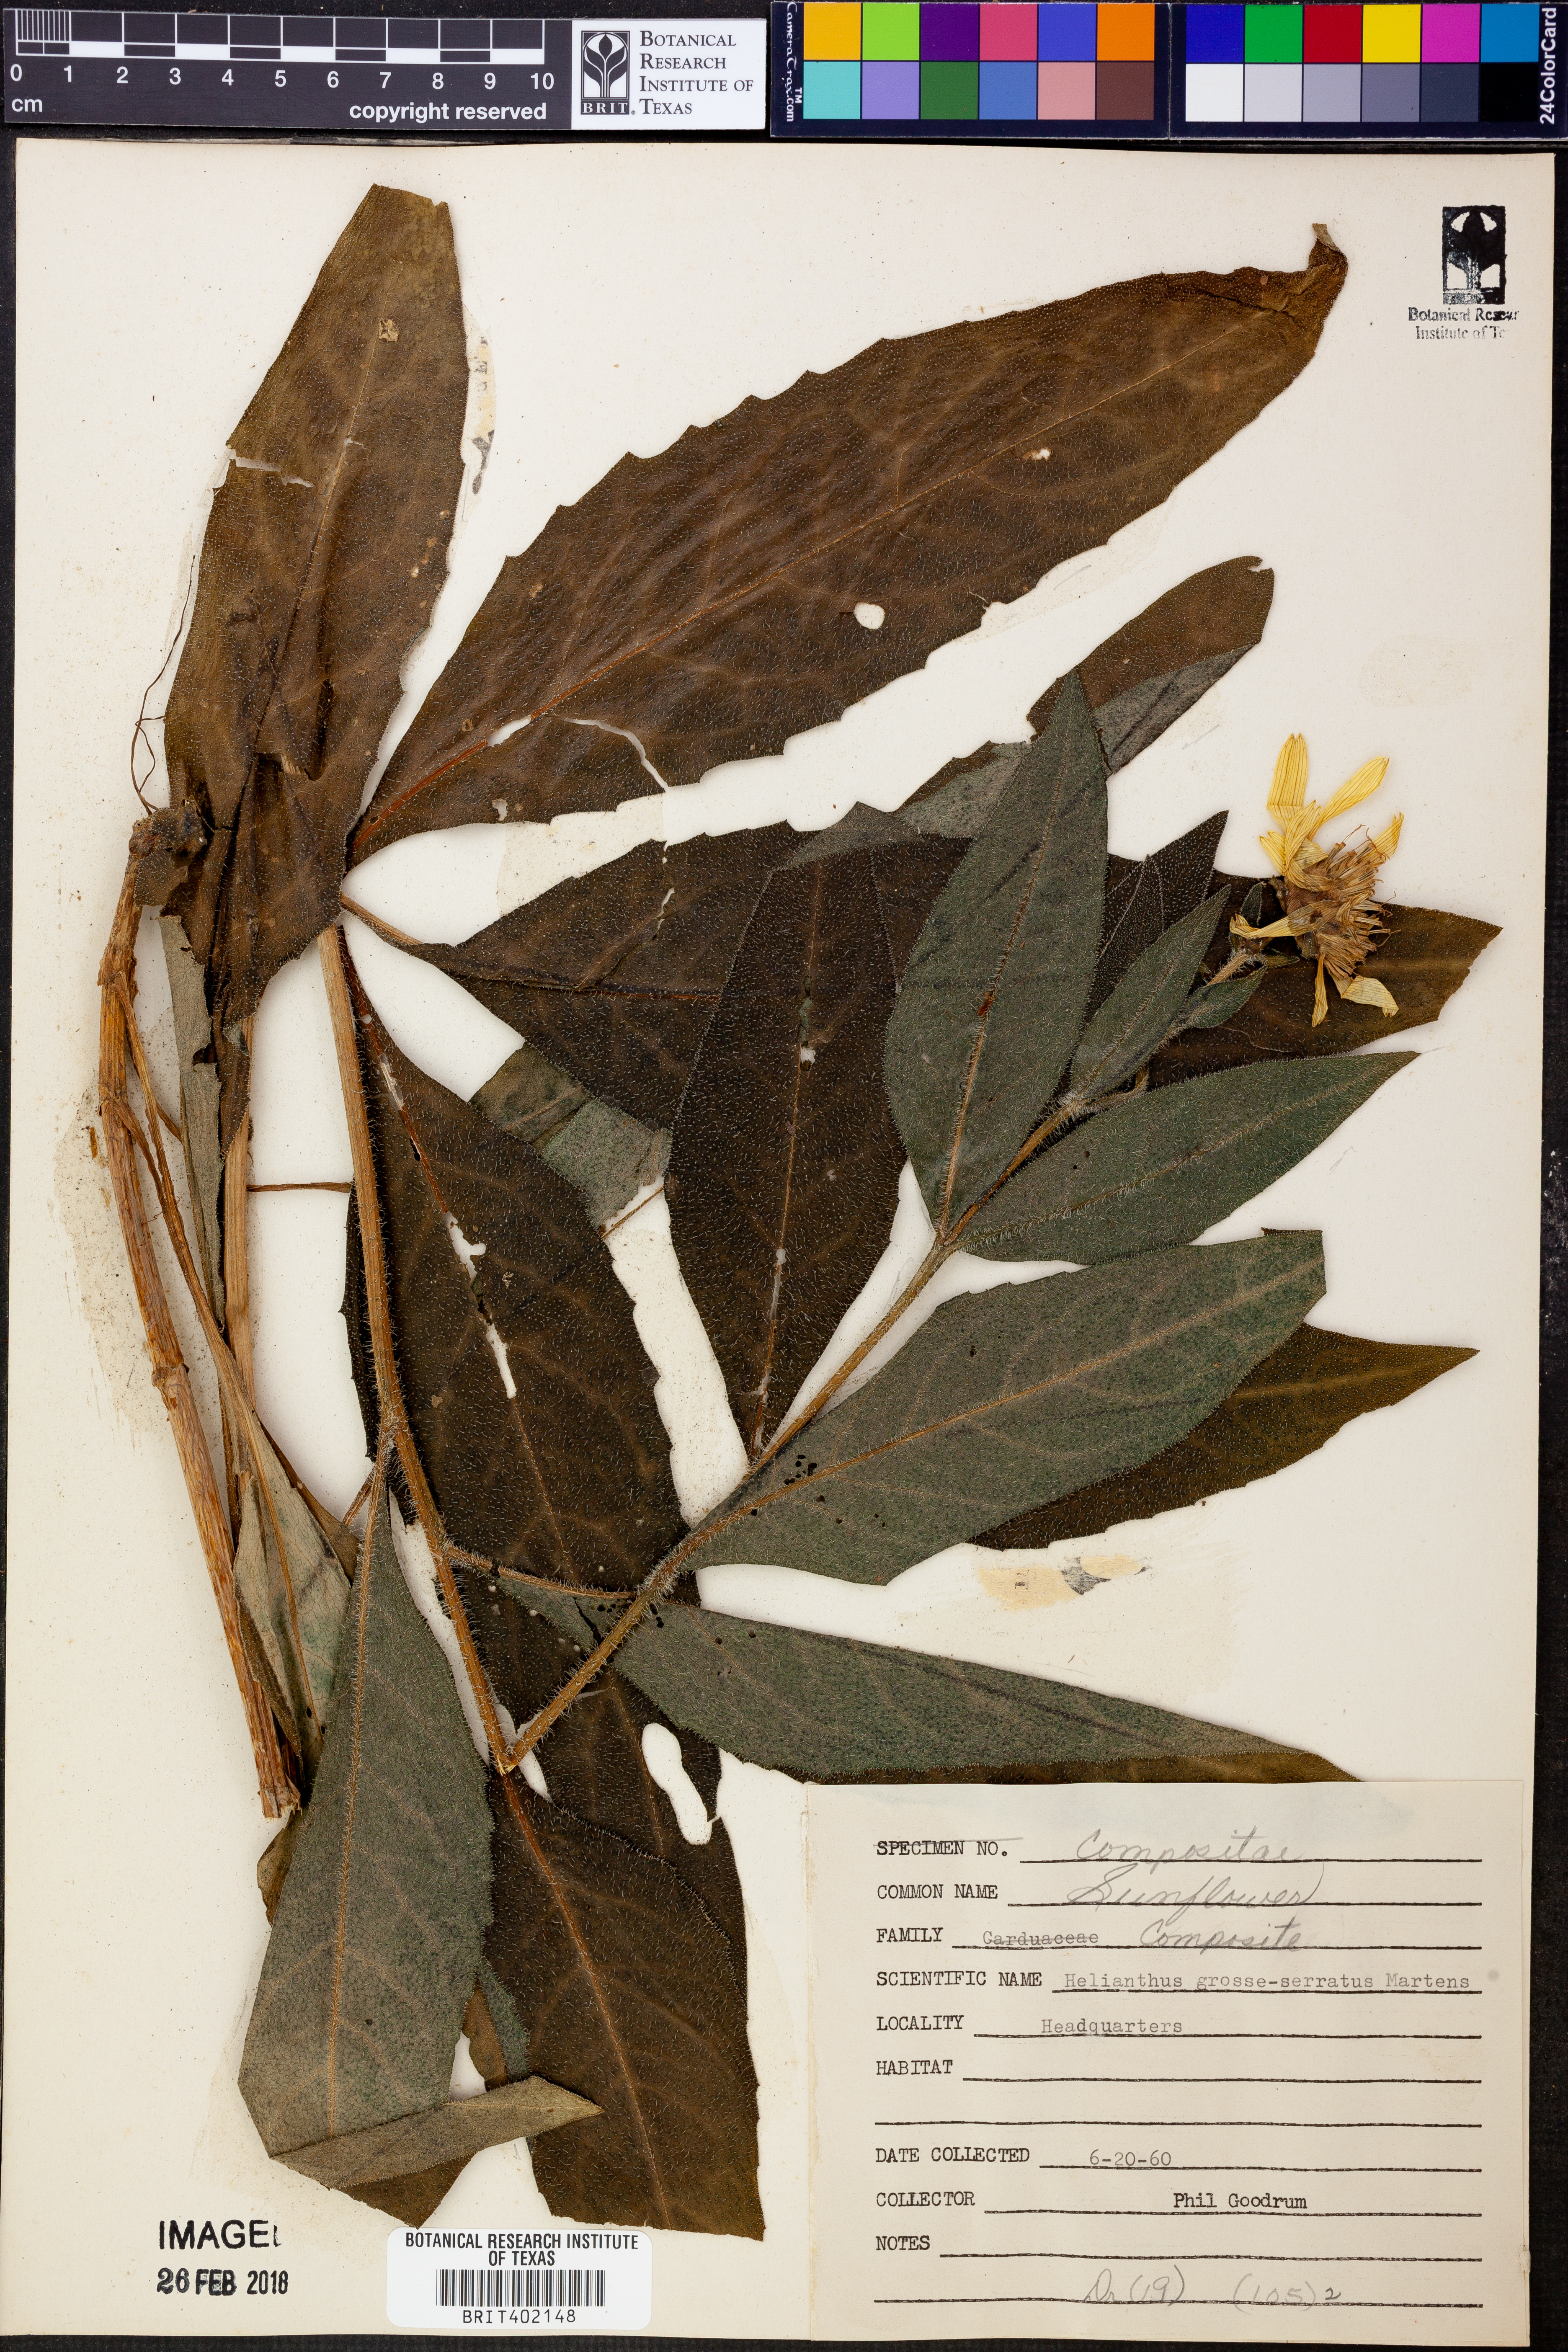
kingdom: Plantae
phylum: Tracheophyta
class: Magnoliopsida
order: Asterales
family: Asteraceae
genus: Helianthus
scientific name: Helianthus grosseserratus
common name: Sawtooth sunflower
